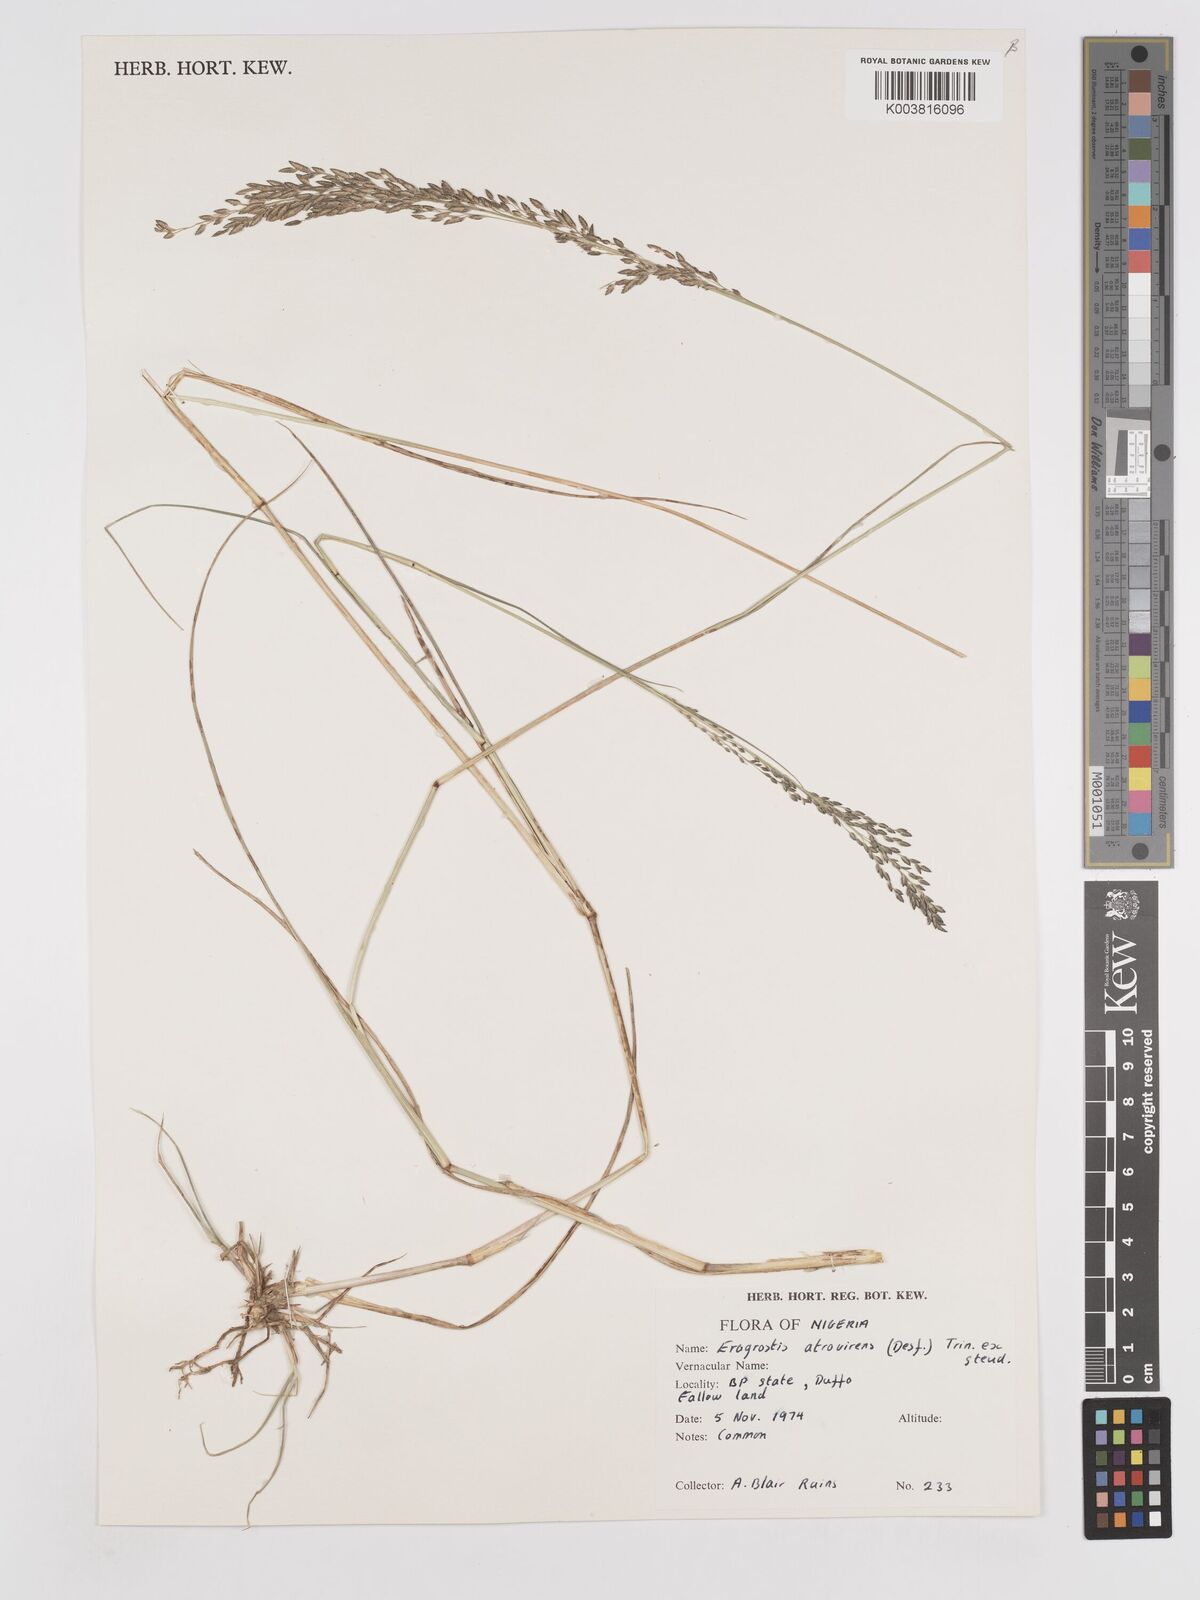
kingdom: Plantae
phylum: Tracheophyta
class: Liliopsida
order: Poales
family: Poaceae
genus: Eragrostis
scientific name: Eragrostis atrovirens
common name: Thalia lovegrass
